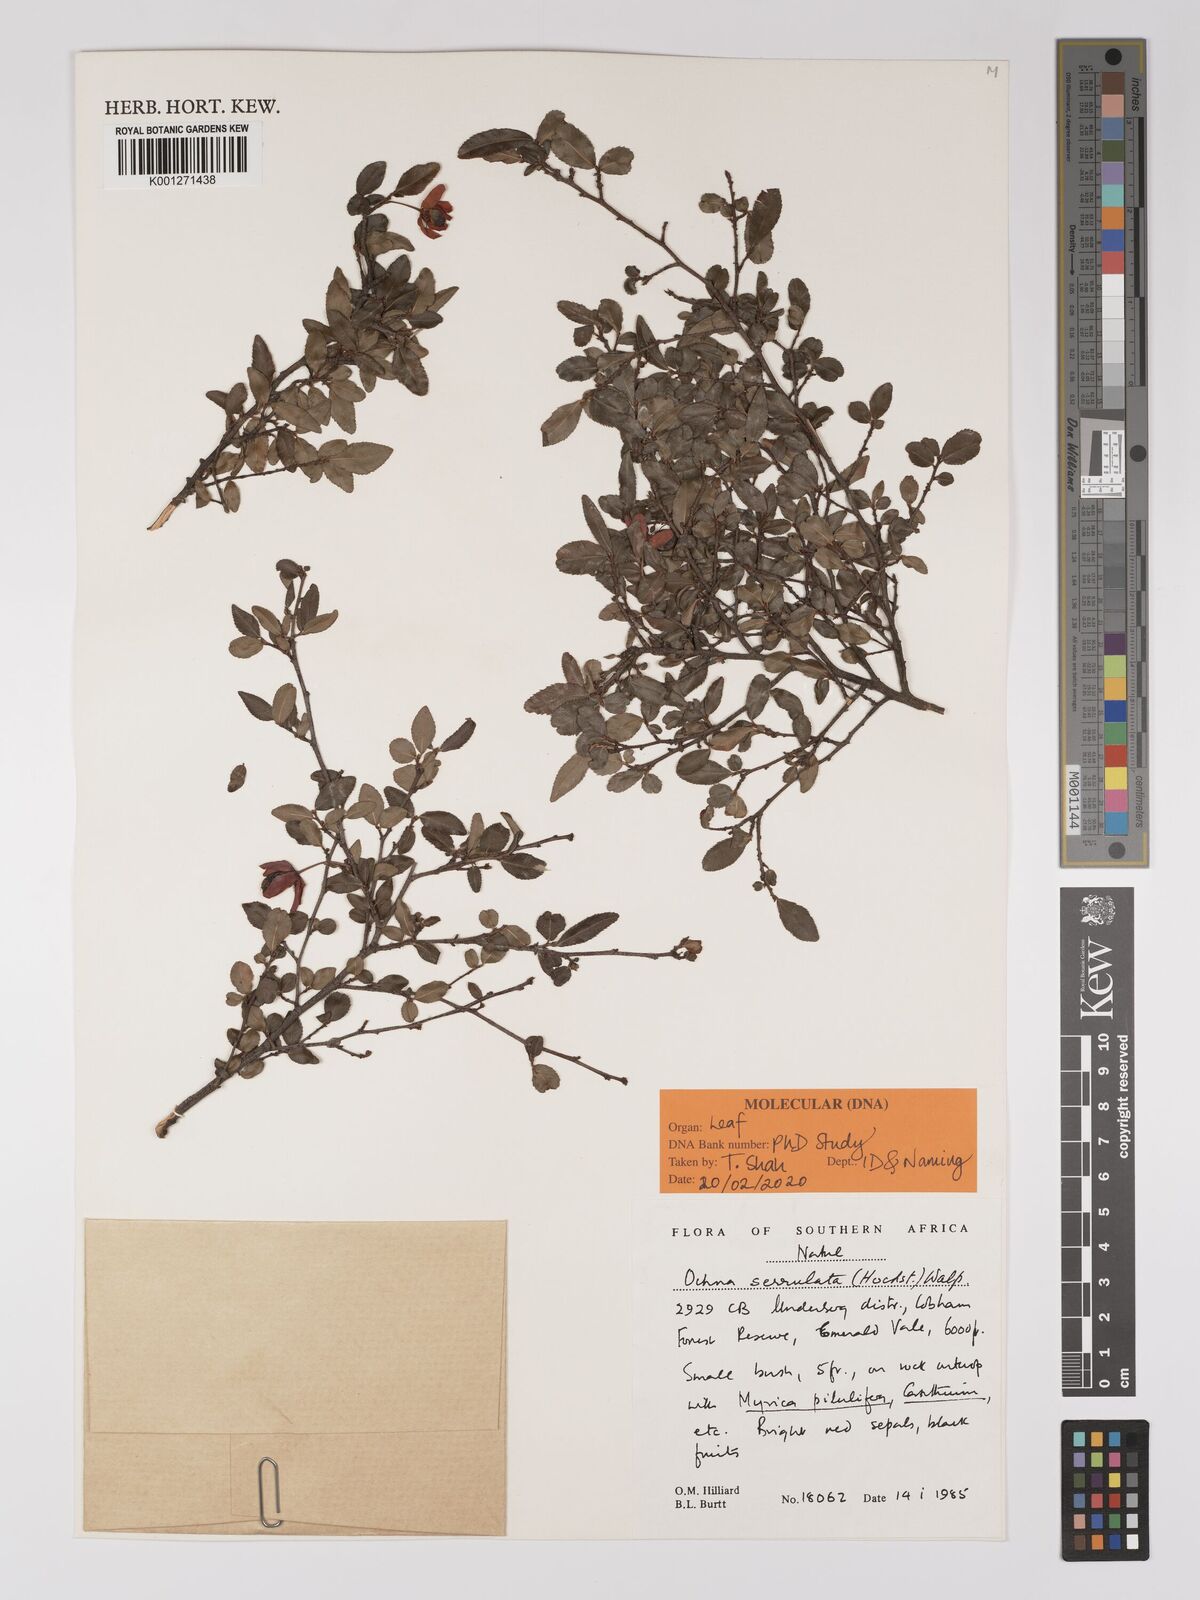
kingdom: Plantae
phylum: Tracheophyta
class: Magnoliopsida
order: Malpighiales
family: Ochnaceae
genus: Ochna
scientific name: Ochna gamostigmata
